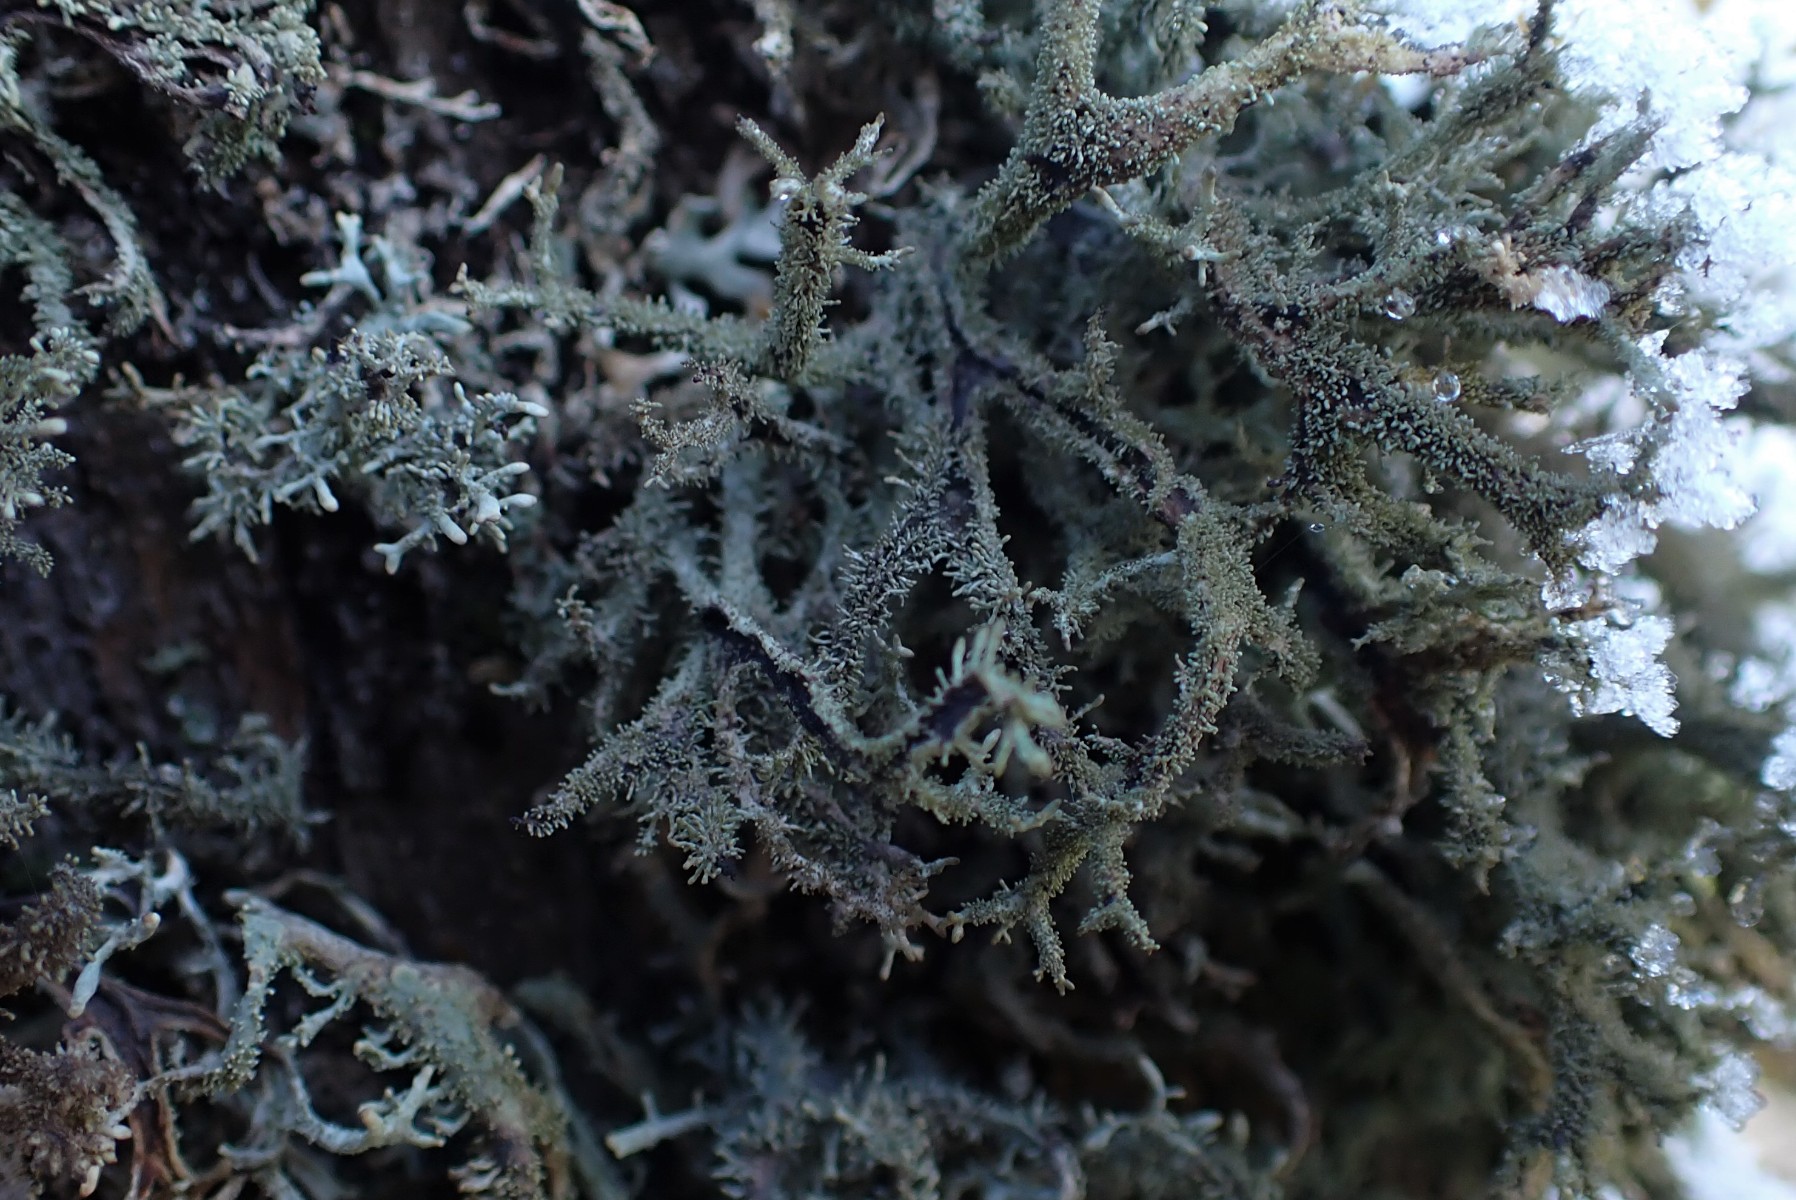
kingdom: Fungi
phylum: Ascomycota
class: Lecanoromycetes
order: Lecanorales
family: Parmeliaceae
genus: Pseudevernia
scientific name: Pseudevernia furfuracea
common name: grå fyrrelav
